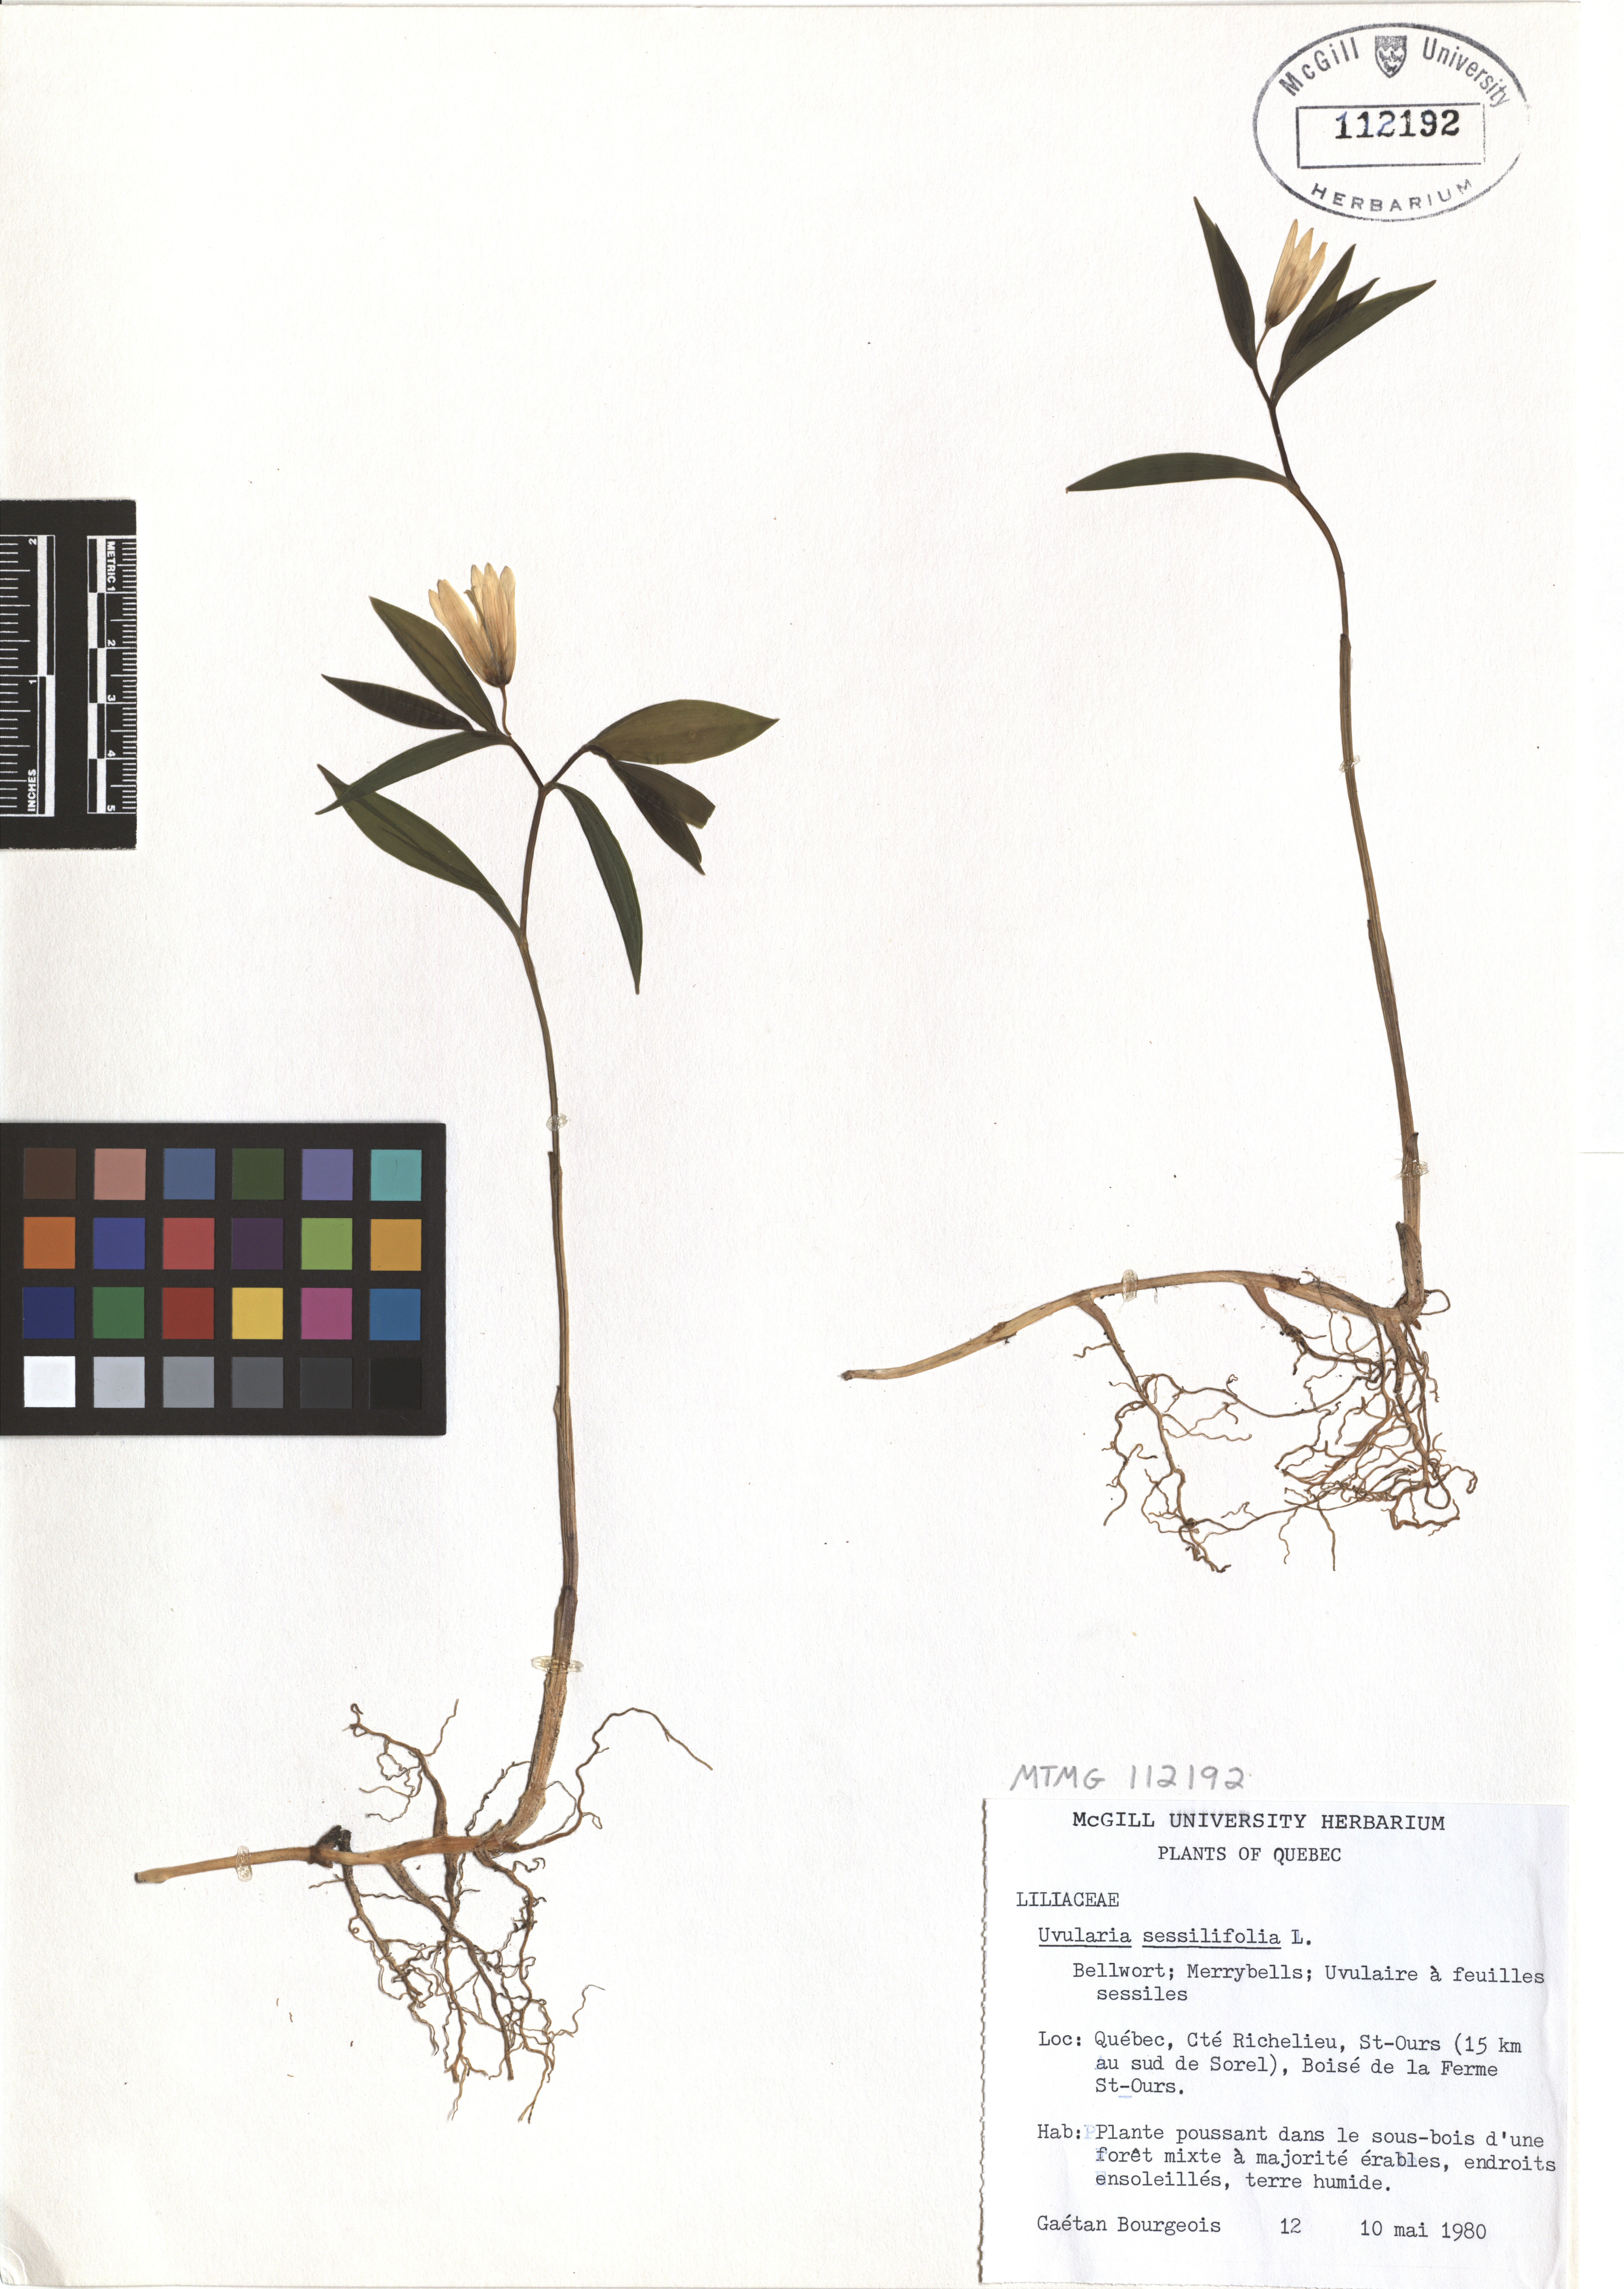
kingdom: Plantae
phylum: Tracheophyta
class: Liliopsida
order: Liliales
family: Colchicaceae
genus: Uvularia
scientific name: Uvularia sessilifolia
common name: Straw-lily
